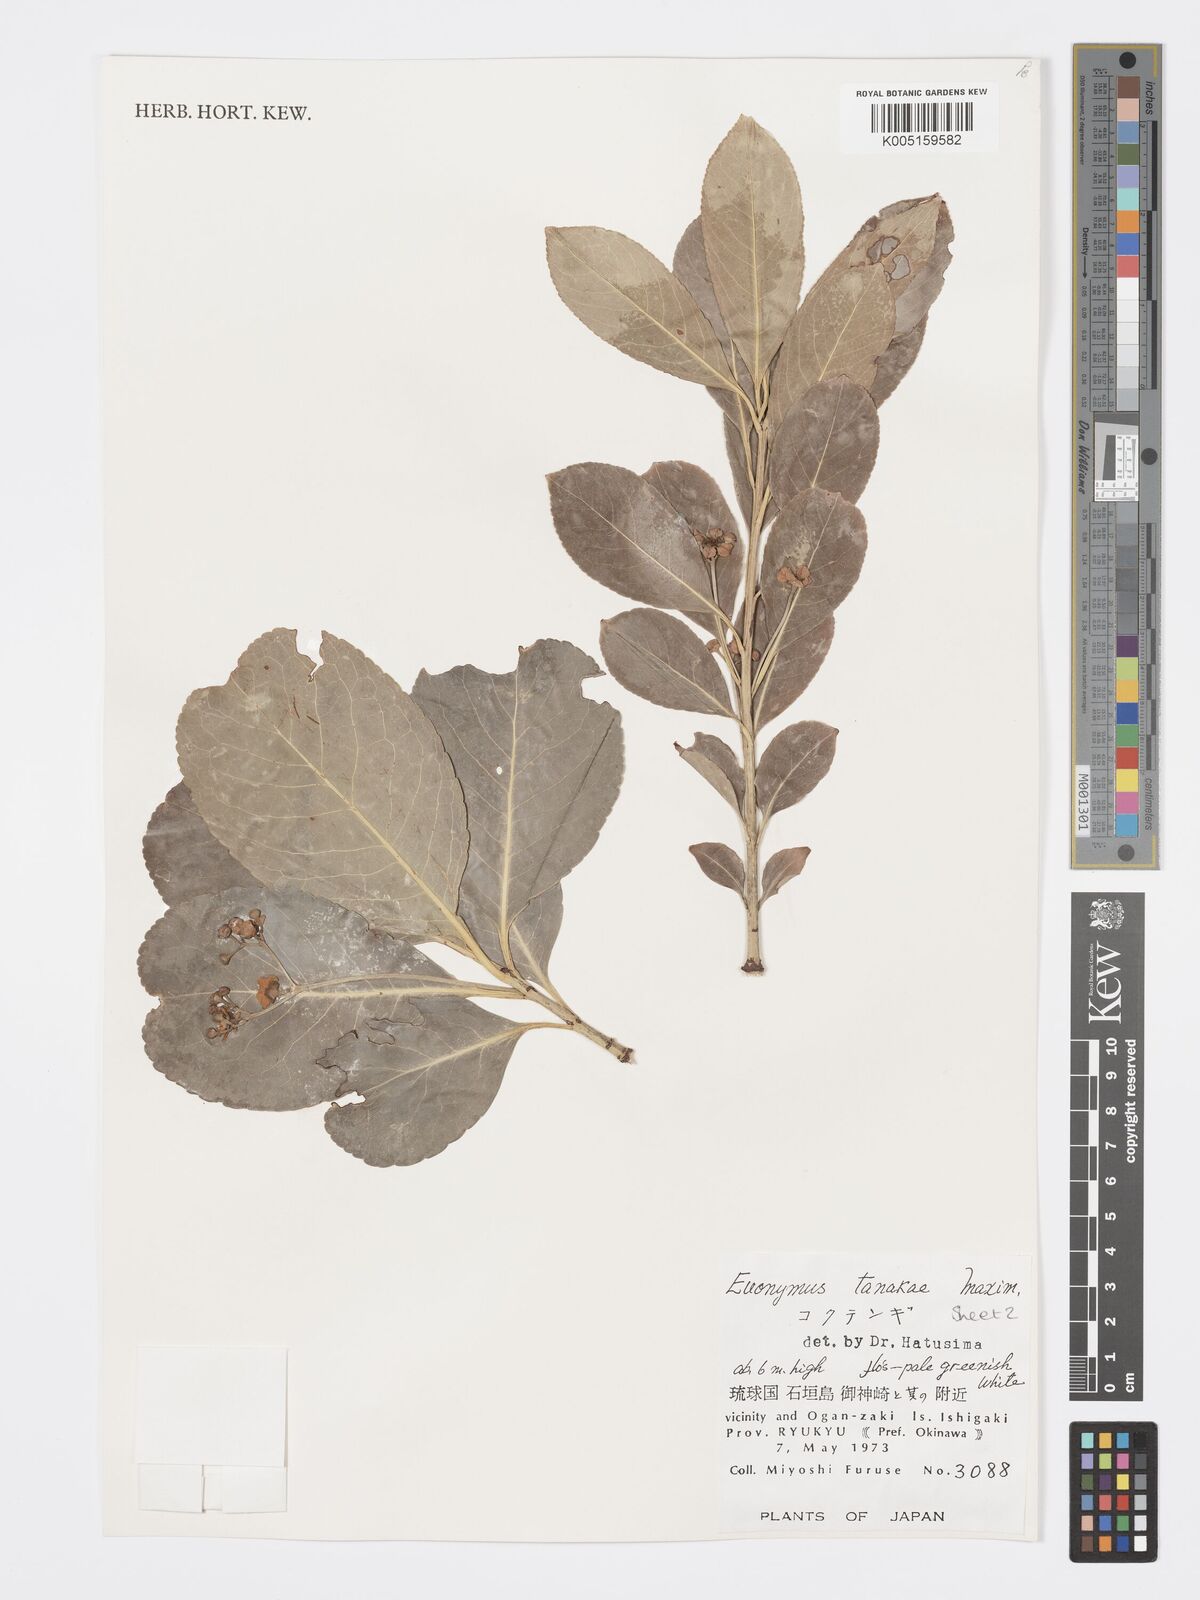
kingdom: Plantae
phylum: Tracheophyta
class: Magnoliopsida
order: Celastrales
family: Celastraceae
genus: Euonymus
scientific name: Euonymus carnosus
